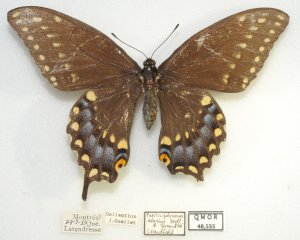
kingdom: Animalia
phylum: Arthropoda
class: Insecta
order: Lepidoptera
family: Papilionidae
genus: Papilio
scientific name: Papilio polyxenes
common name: Black Swallowtail
